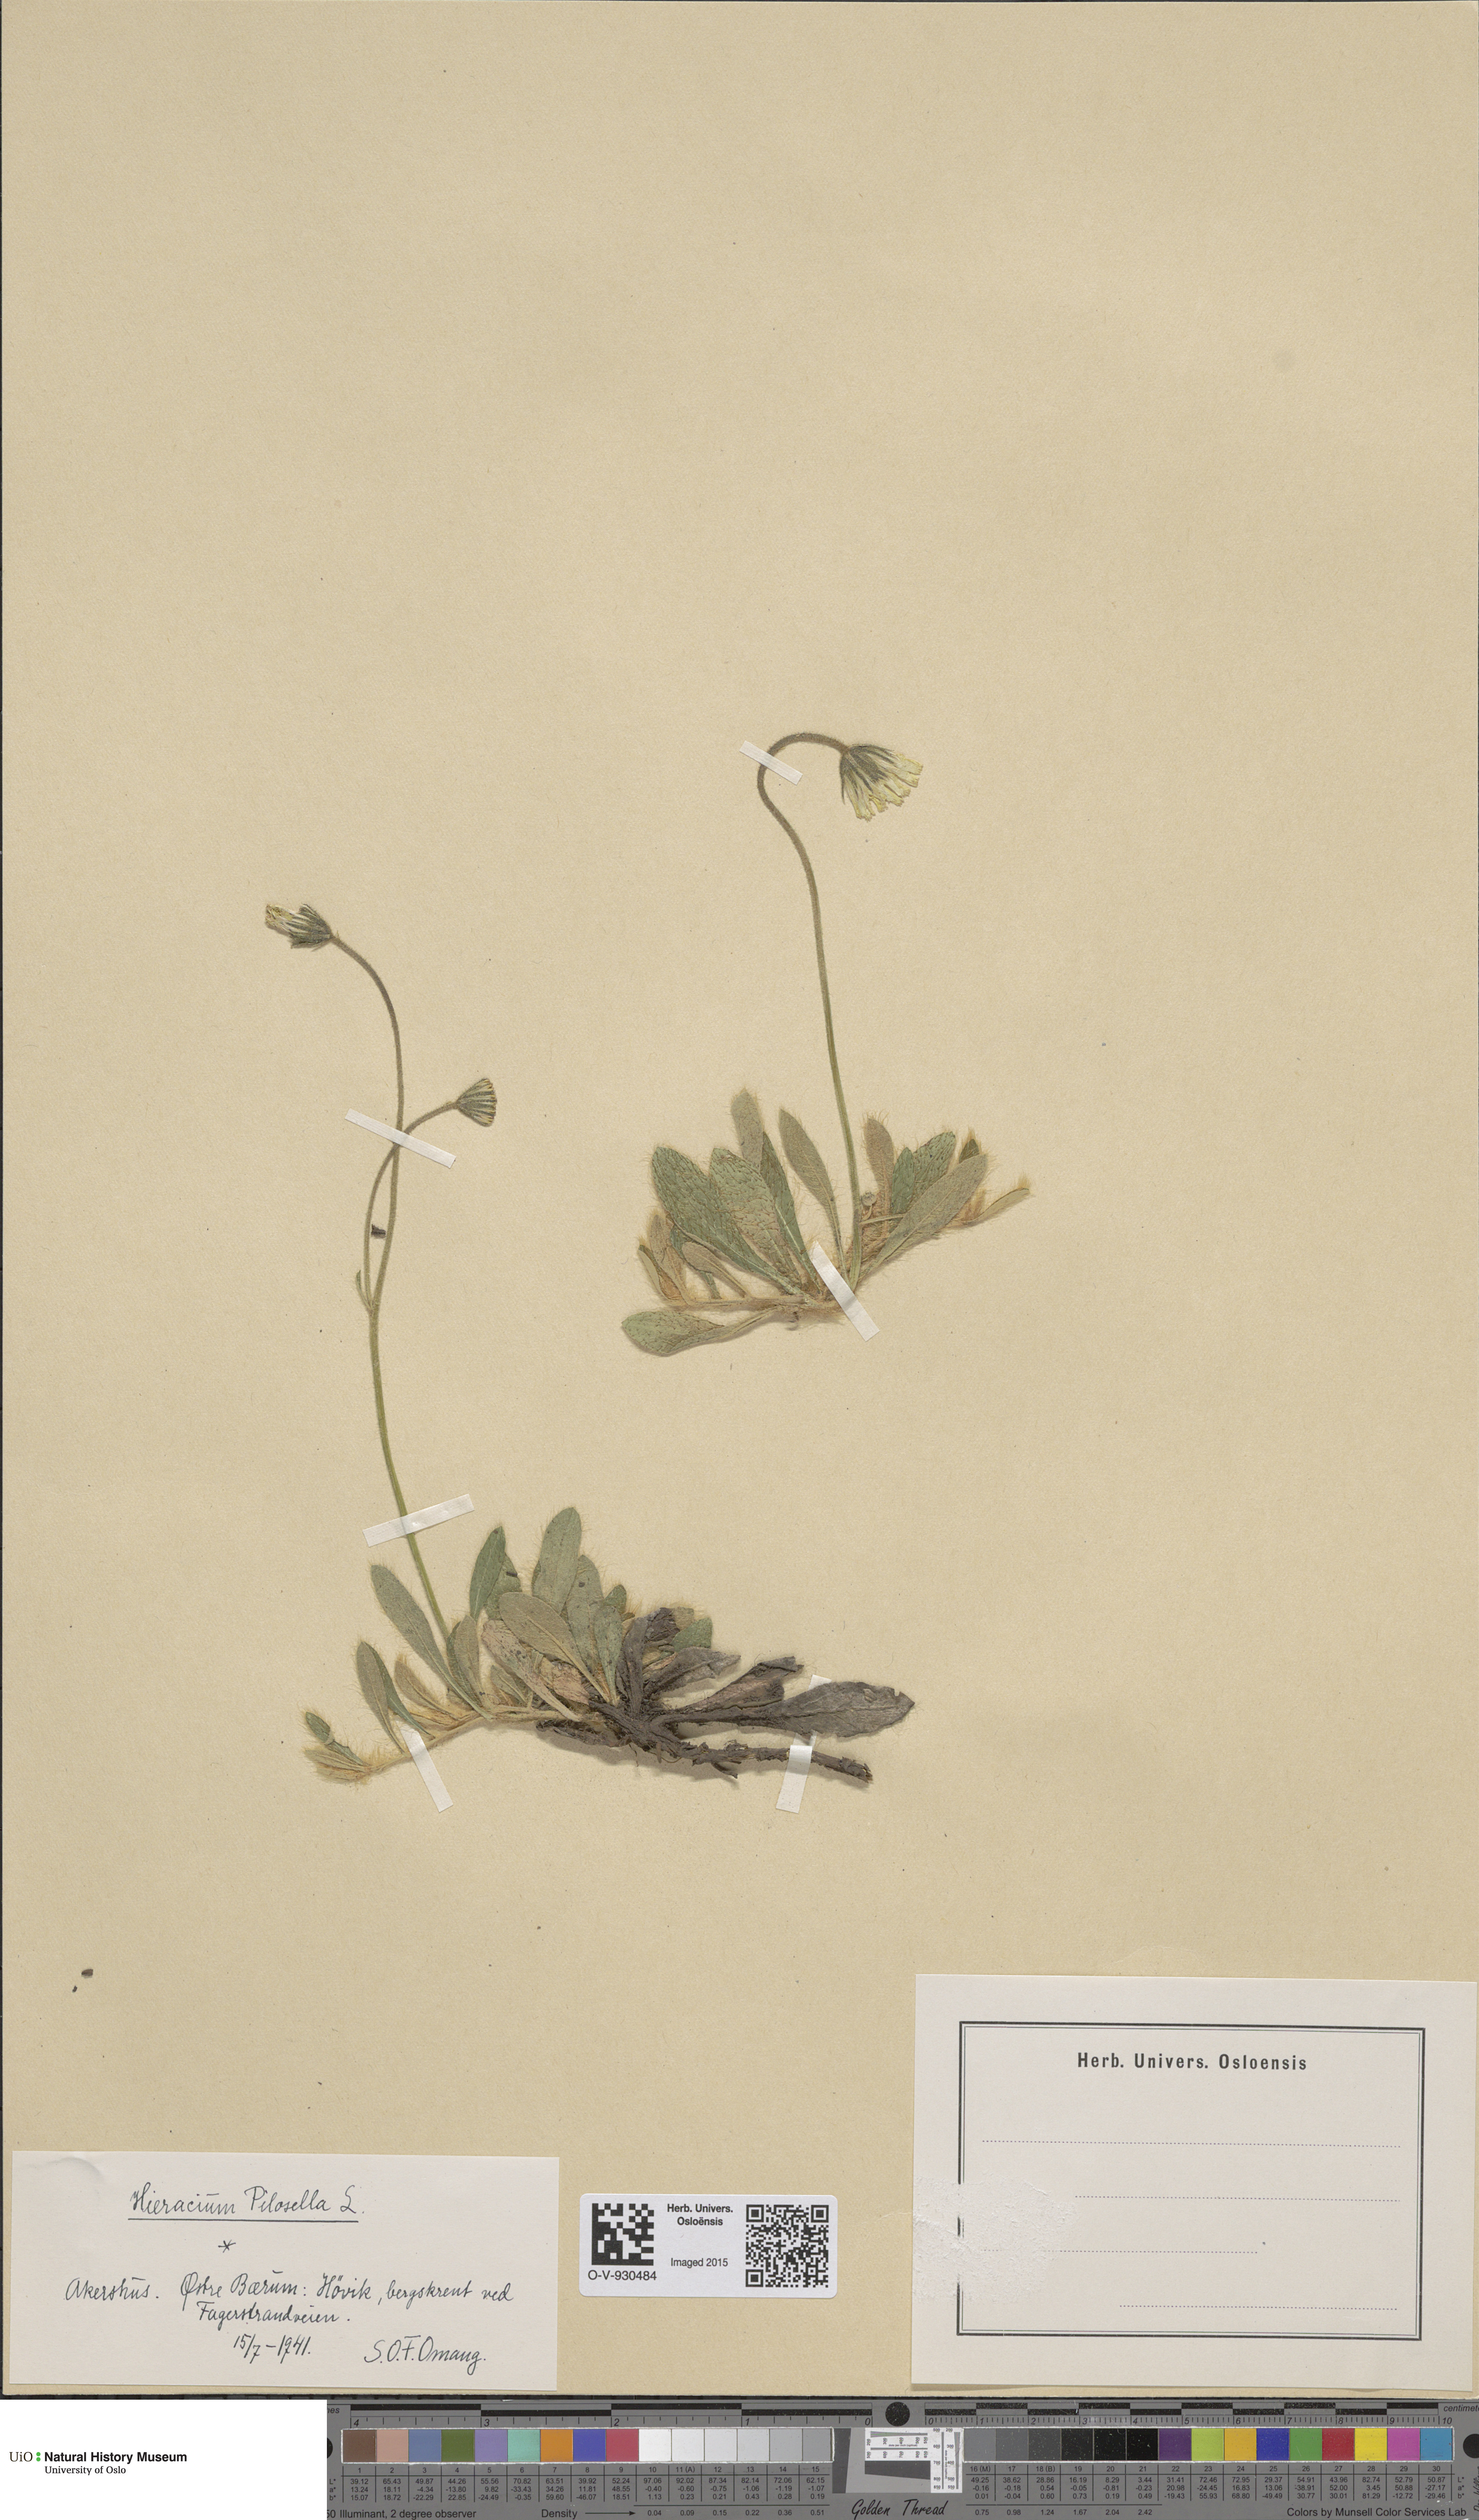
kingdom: Plantae
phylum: Tracheophyta
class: Magnoliopsida
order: Asterales
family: Asteraceae
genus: Pilosella
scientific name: Pilosella officinarum
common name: Mouse-ear hawkweed
